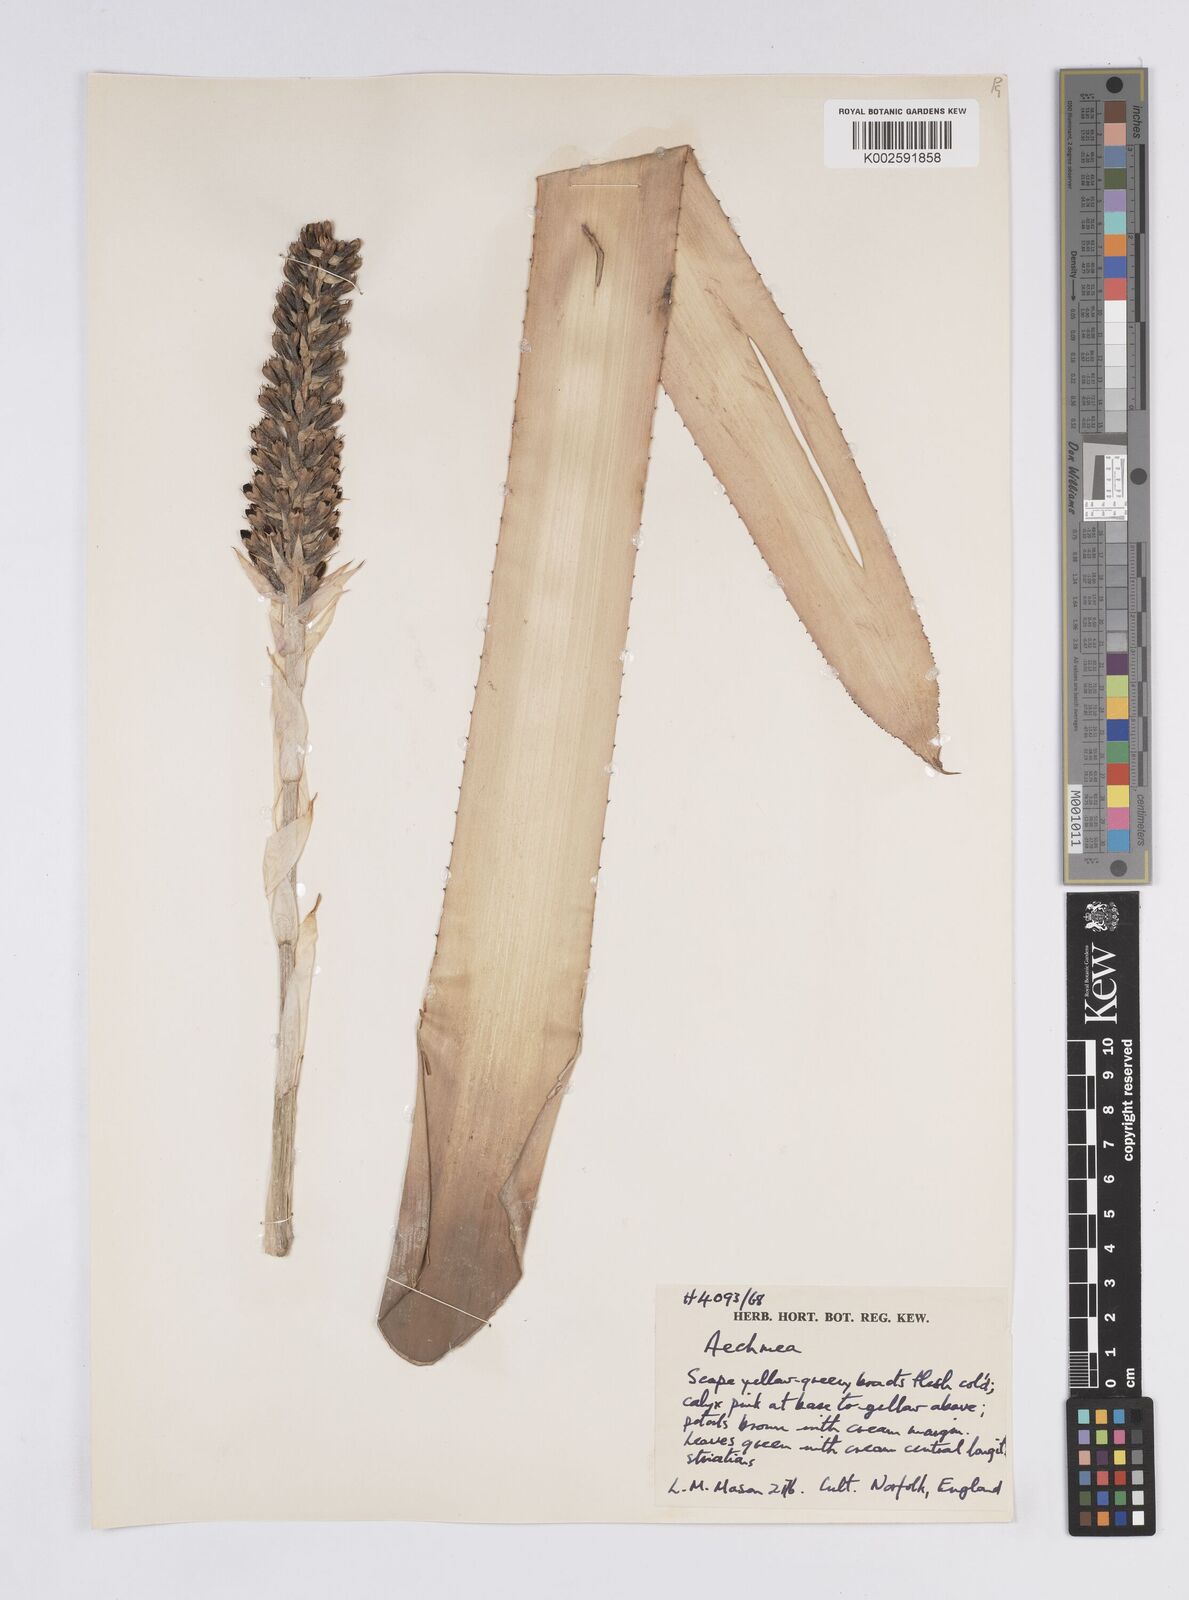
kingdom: Plantae
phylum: Tracheophyta
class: Liliopsida
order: Poales
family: Bromeliaceae
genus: Aechmea
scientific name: Aechmea
